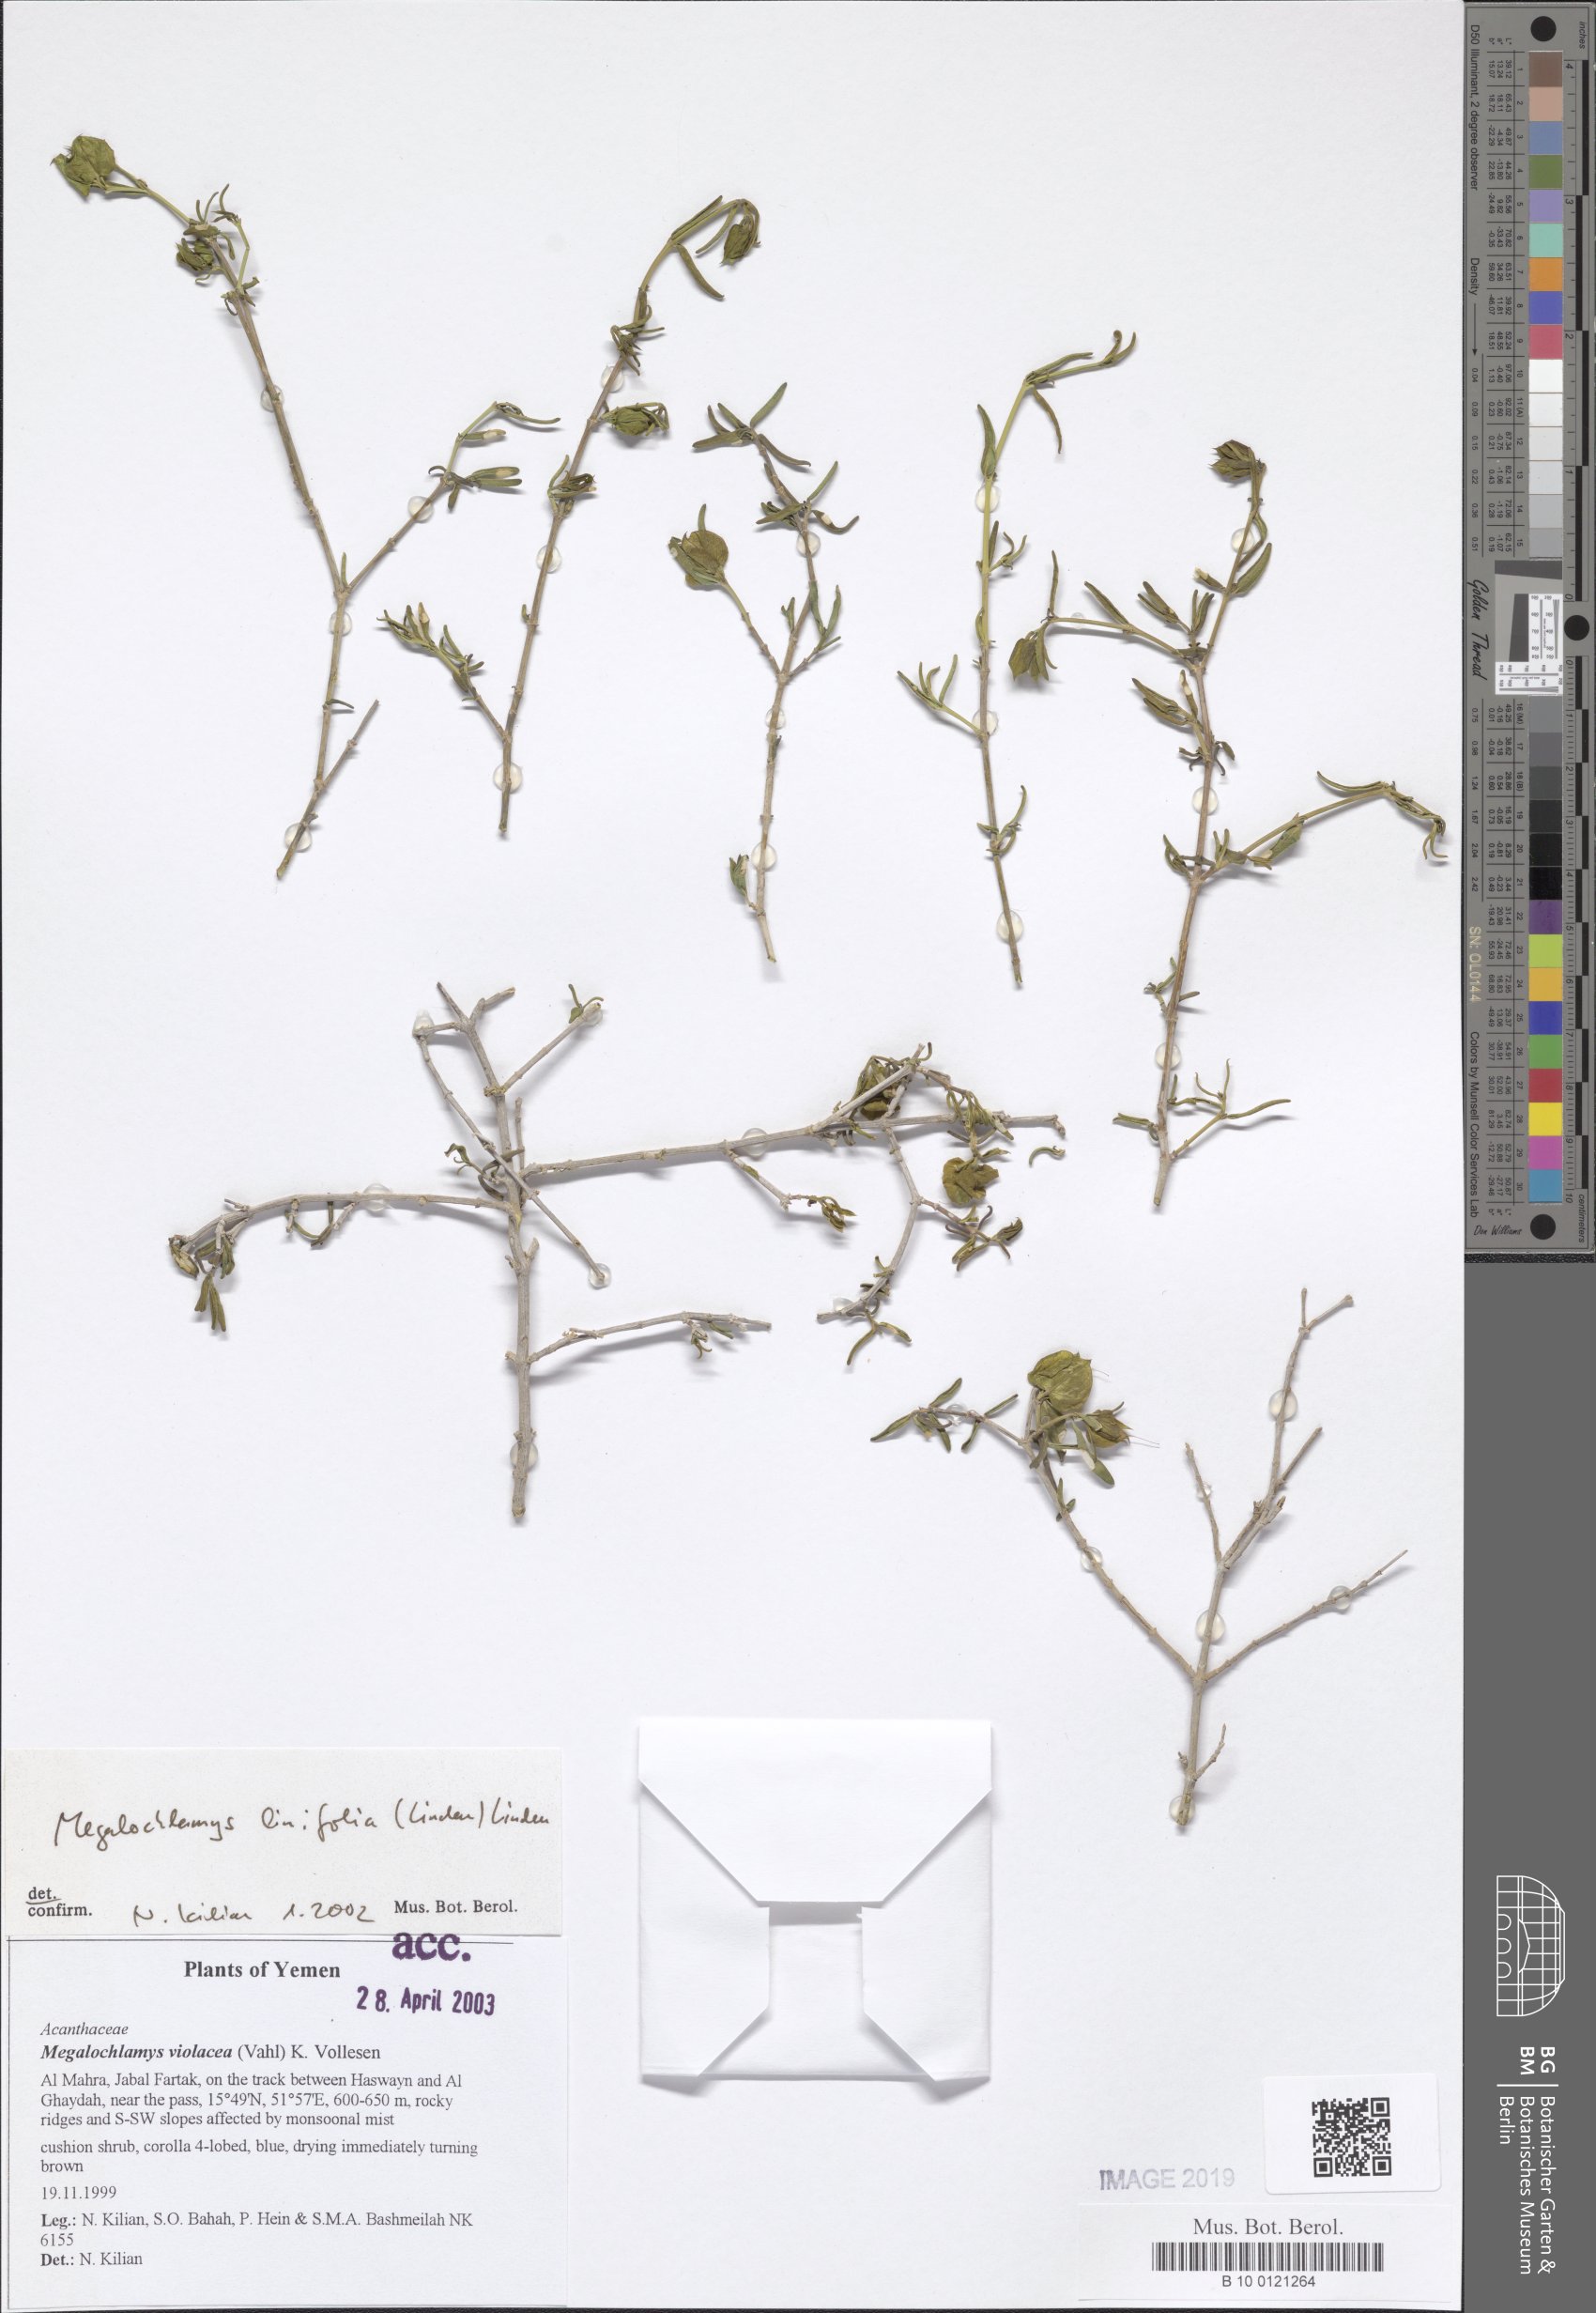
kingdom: Plantae
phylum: Tracheophyta
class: Magnoliopsida
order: Lamiales
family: Acanthaceae
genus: Megalochlamys
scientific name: Megalochlamys violacea
